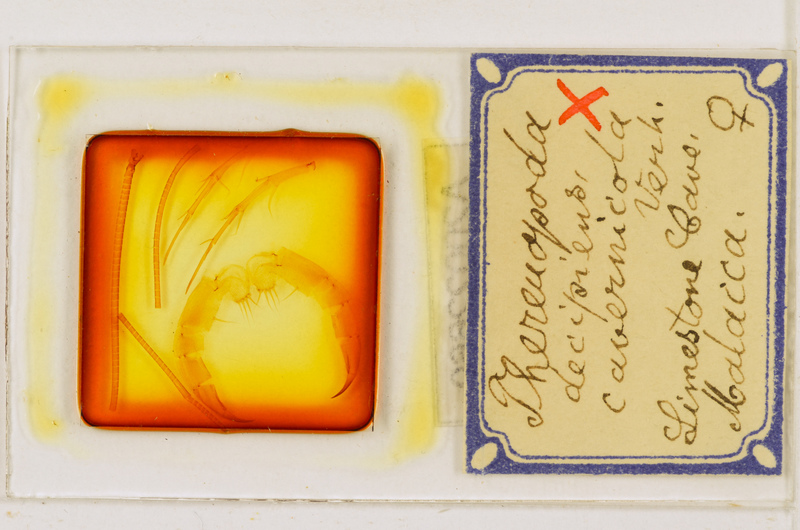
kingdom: Animalia
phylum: Arthropoda
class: Chilopoda
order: Scutigeromorpha
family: Scutigeridae
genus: Thereuopoda
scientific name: Thereuopoda longicornis
